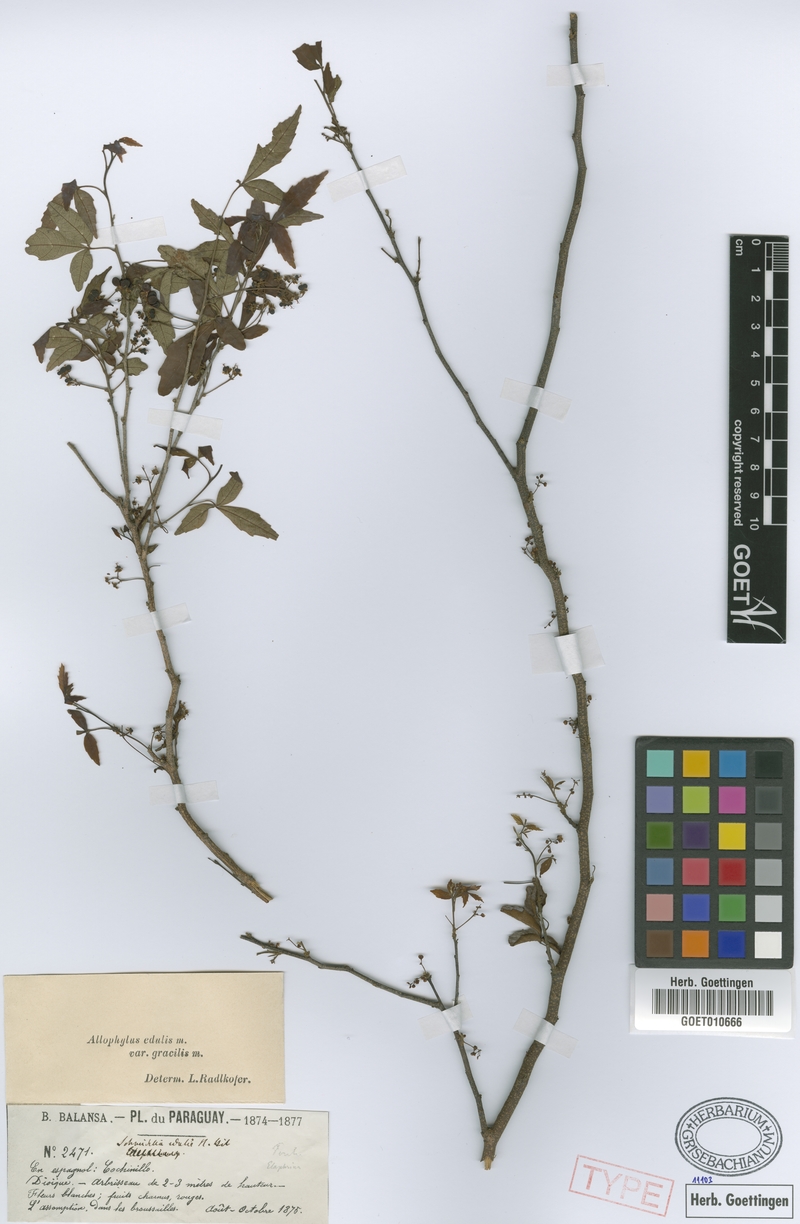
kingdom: Plantae
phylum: Tracheophyta
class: Magnoliopsida
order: Sapindales
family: Sapindaceae
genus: Allophylus
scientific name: Allophylus edulis
